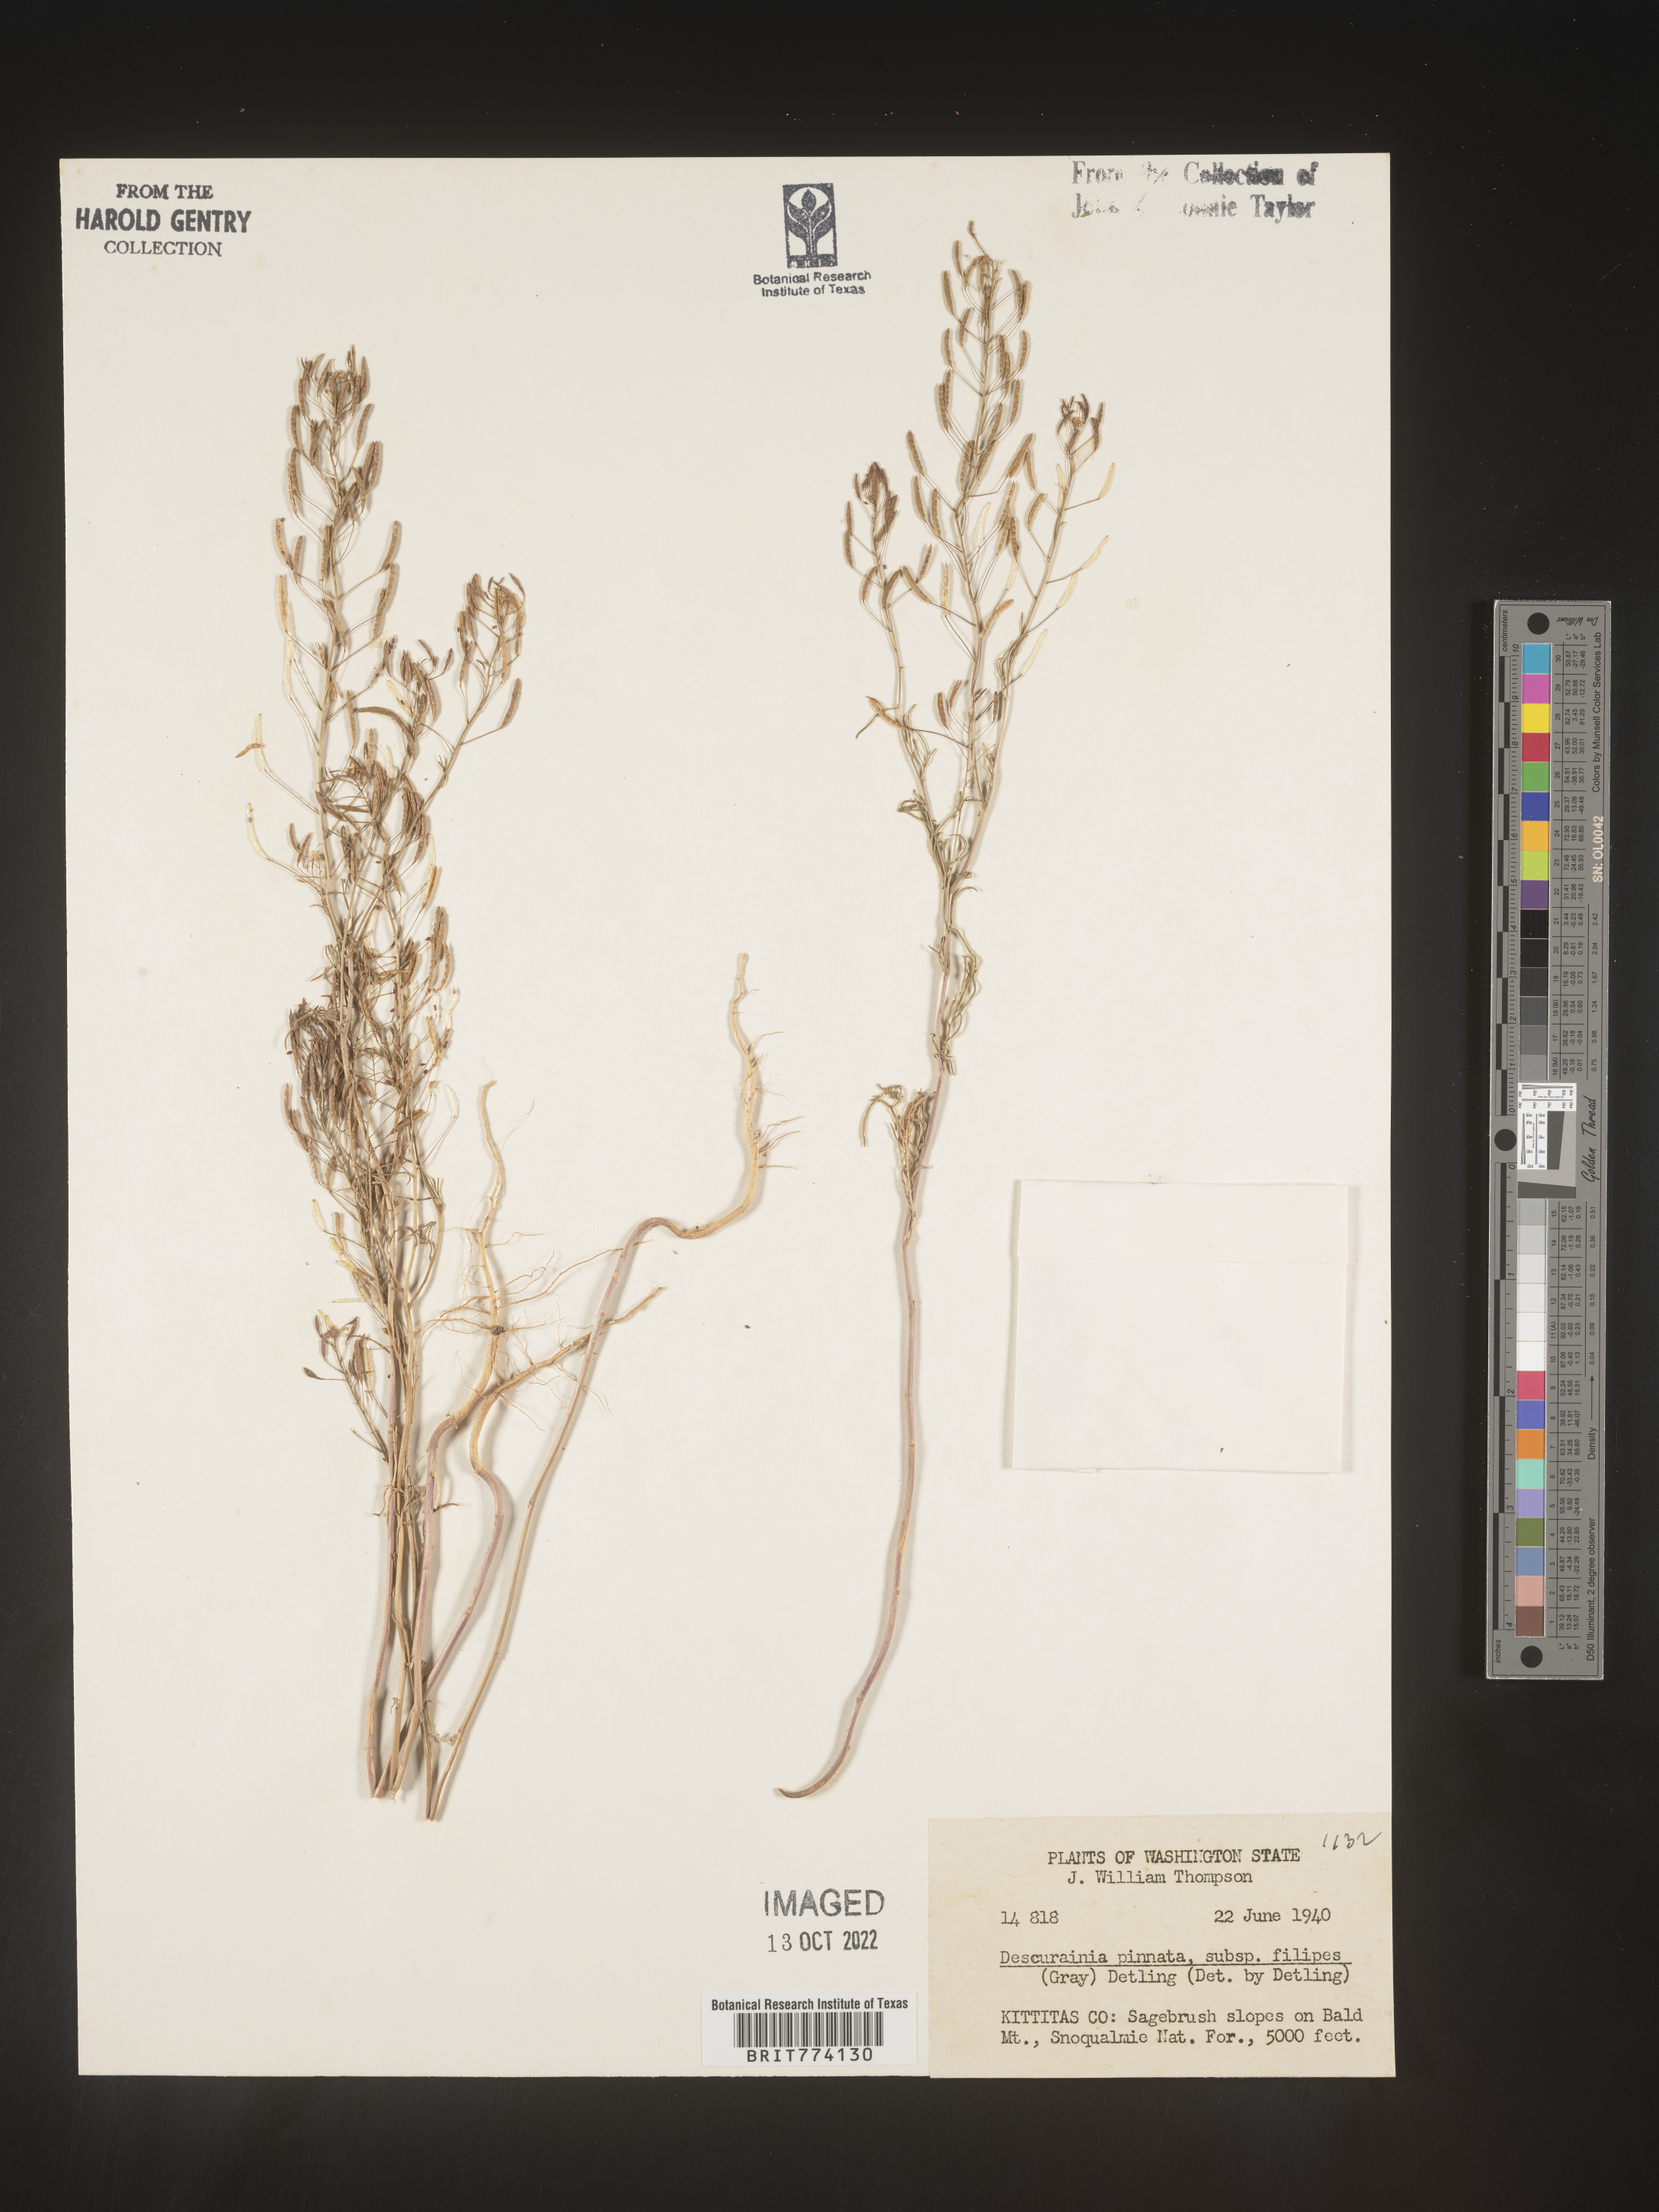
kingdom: Plantae
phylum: Tracheophyta
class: Magnoliopsida
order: Brassicales
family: Brassicaceae
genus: Descurainia
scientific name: Descurainia longipedicellata
